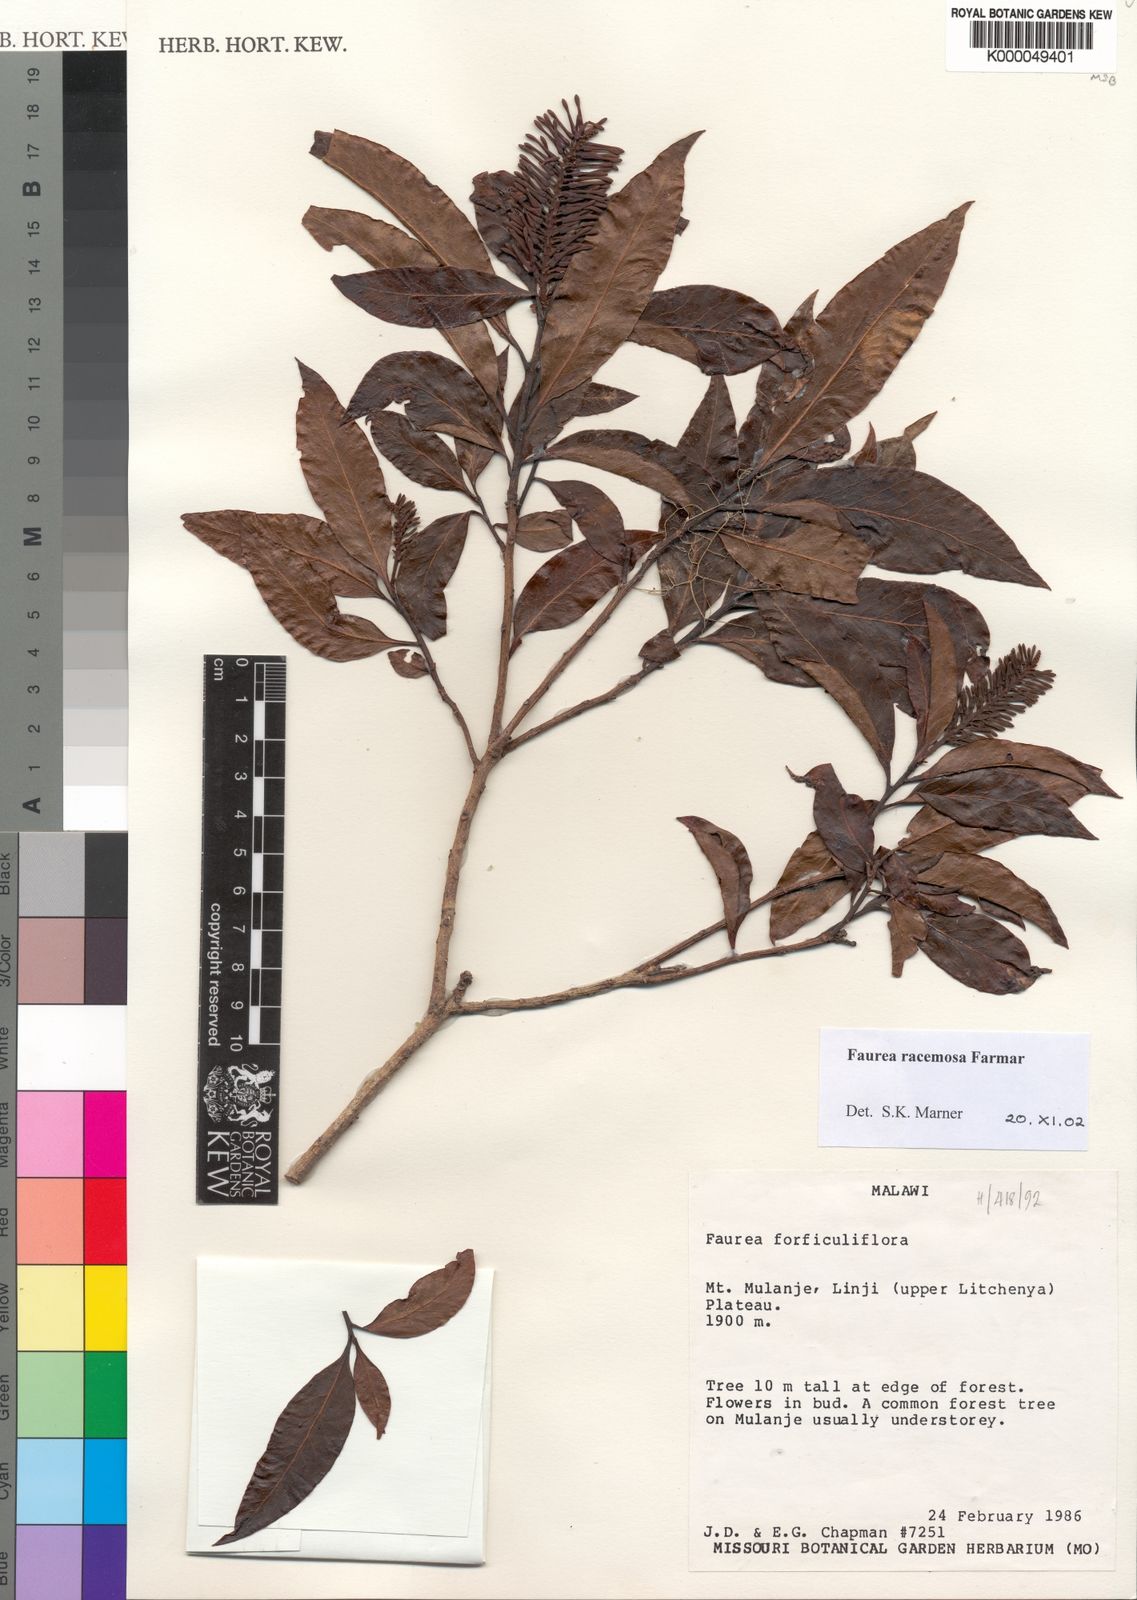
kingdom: Plantae
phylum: Tracheophyta
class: Magnoliopsida
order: Proteales
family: Proteaceae
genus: Faurea
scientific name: Faurea racemosa
